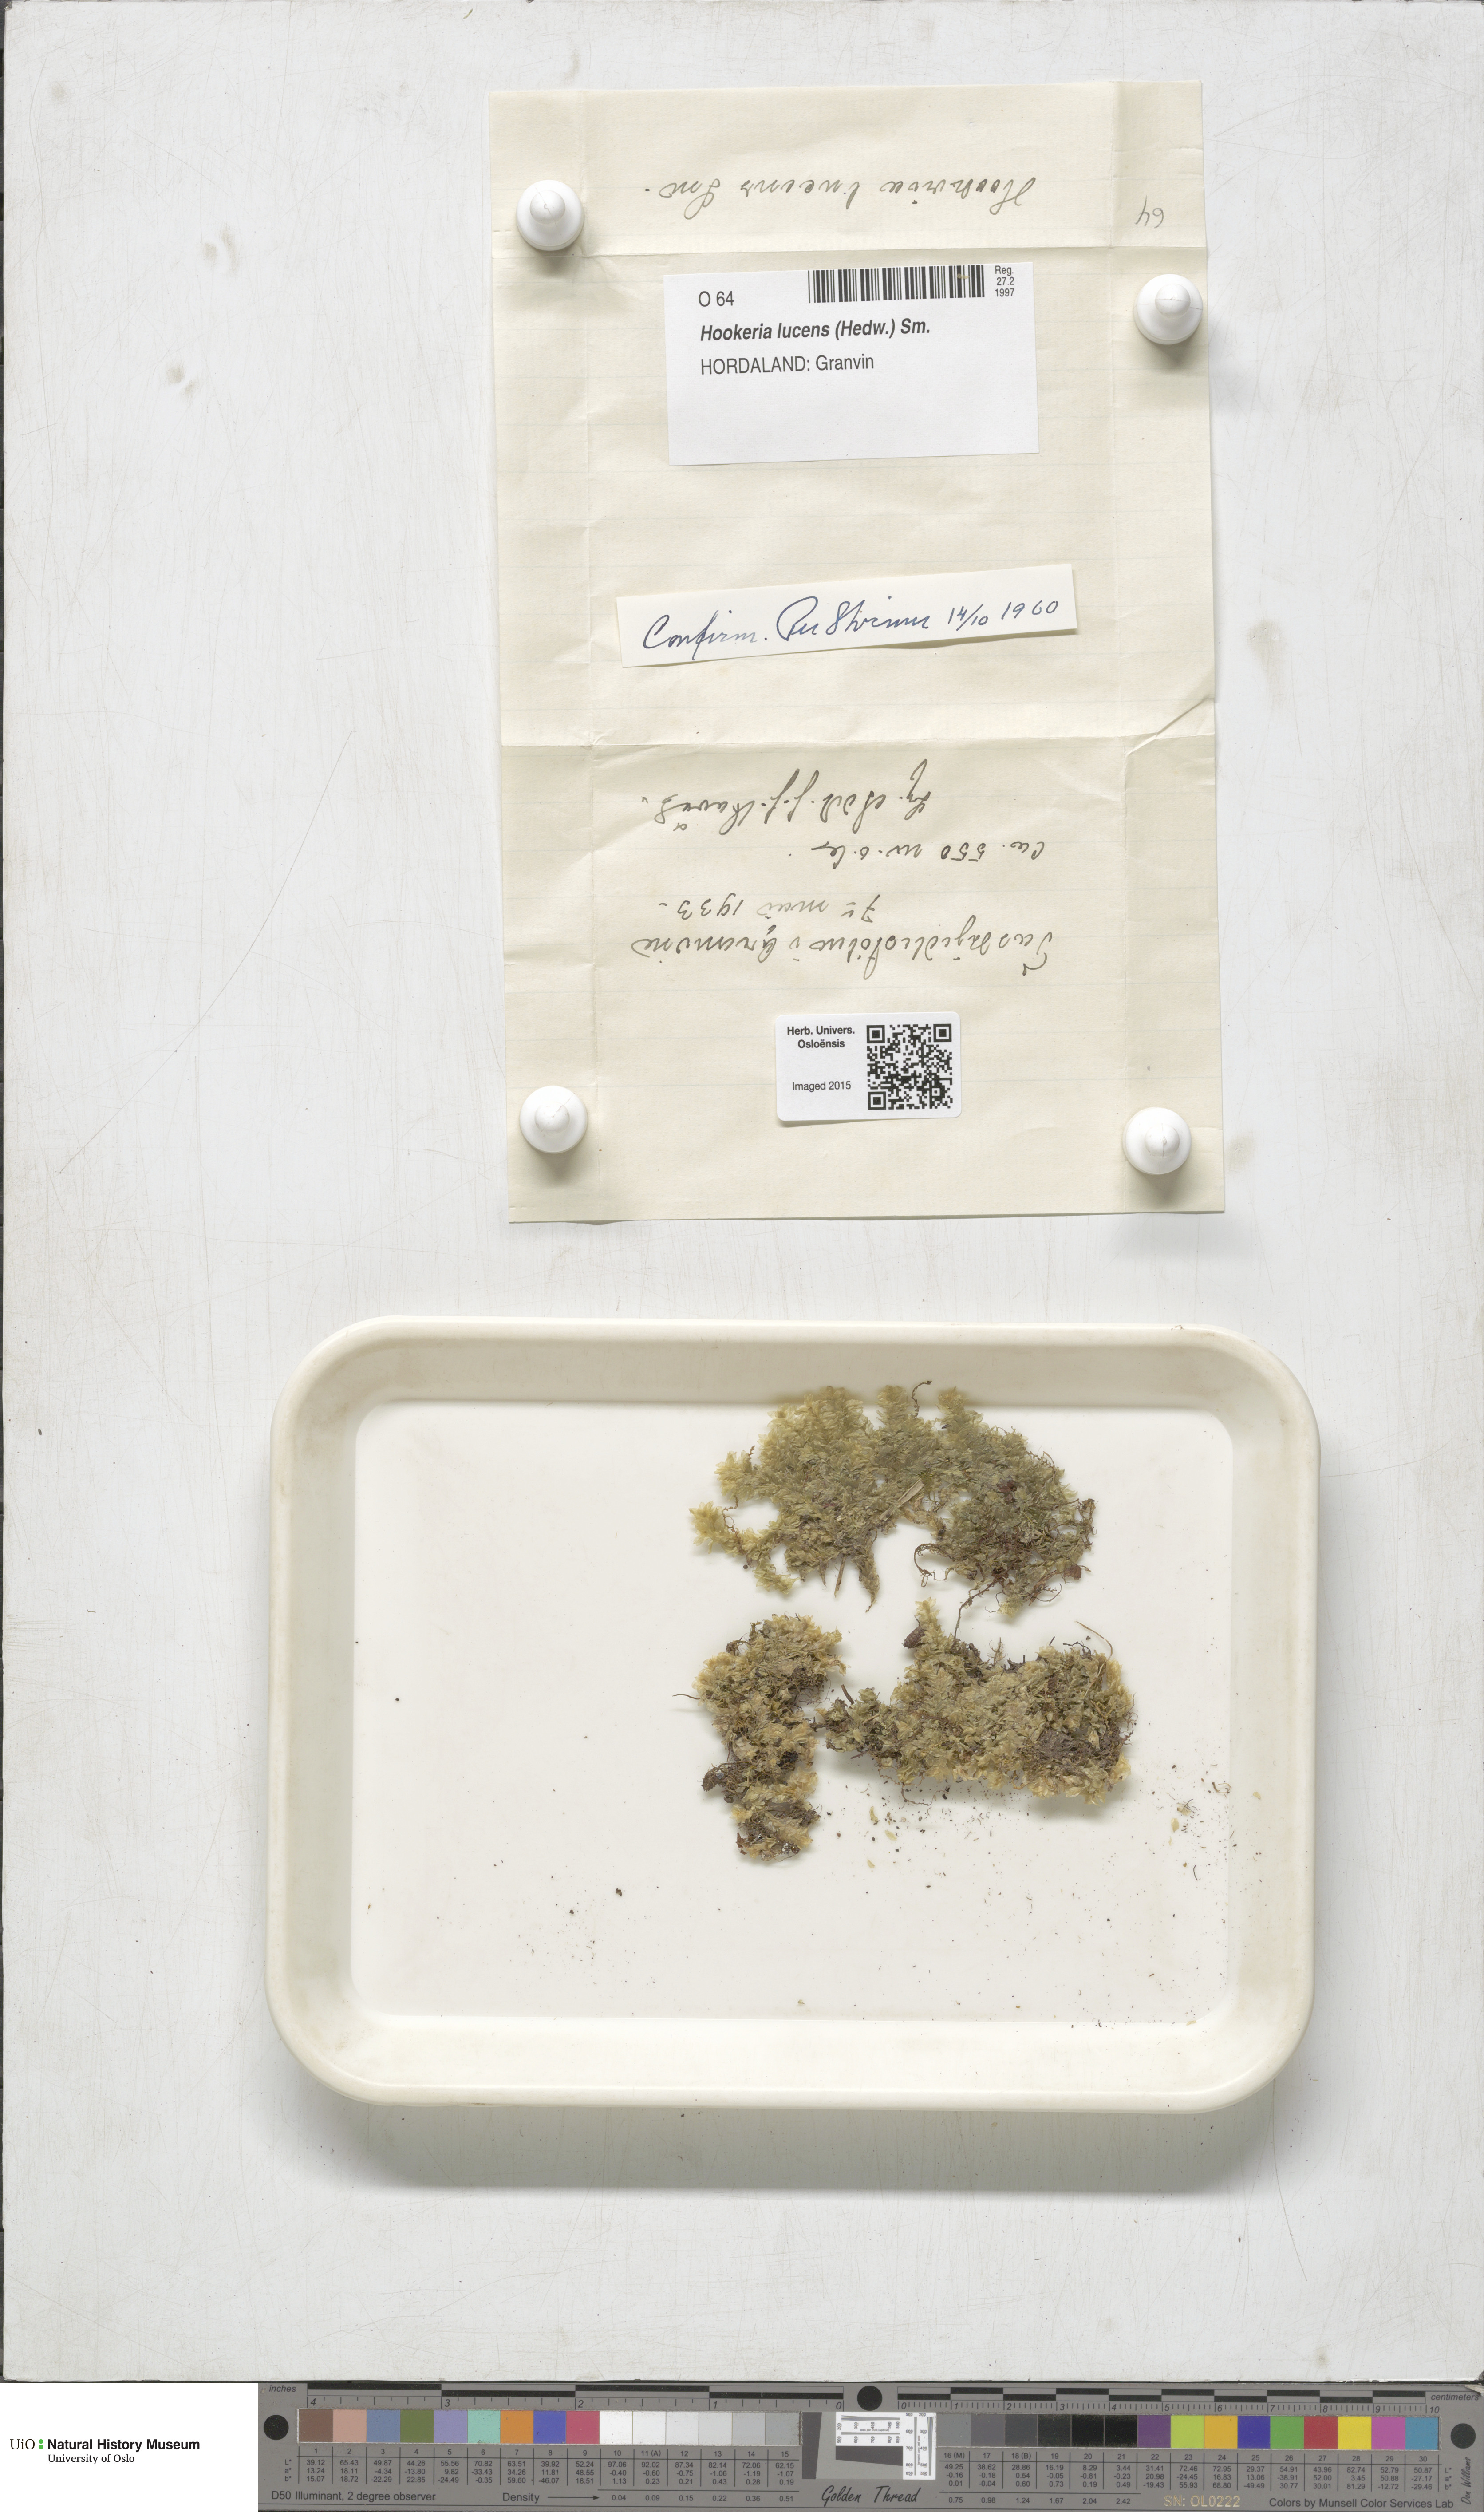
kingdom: Plantae
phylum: Bryophyta
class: Bryopsida
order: Hookeriales
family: Hookeriaceae
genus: Hookeria
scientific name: Hookeria lucens
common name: Shining hookeria
